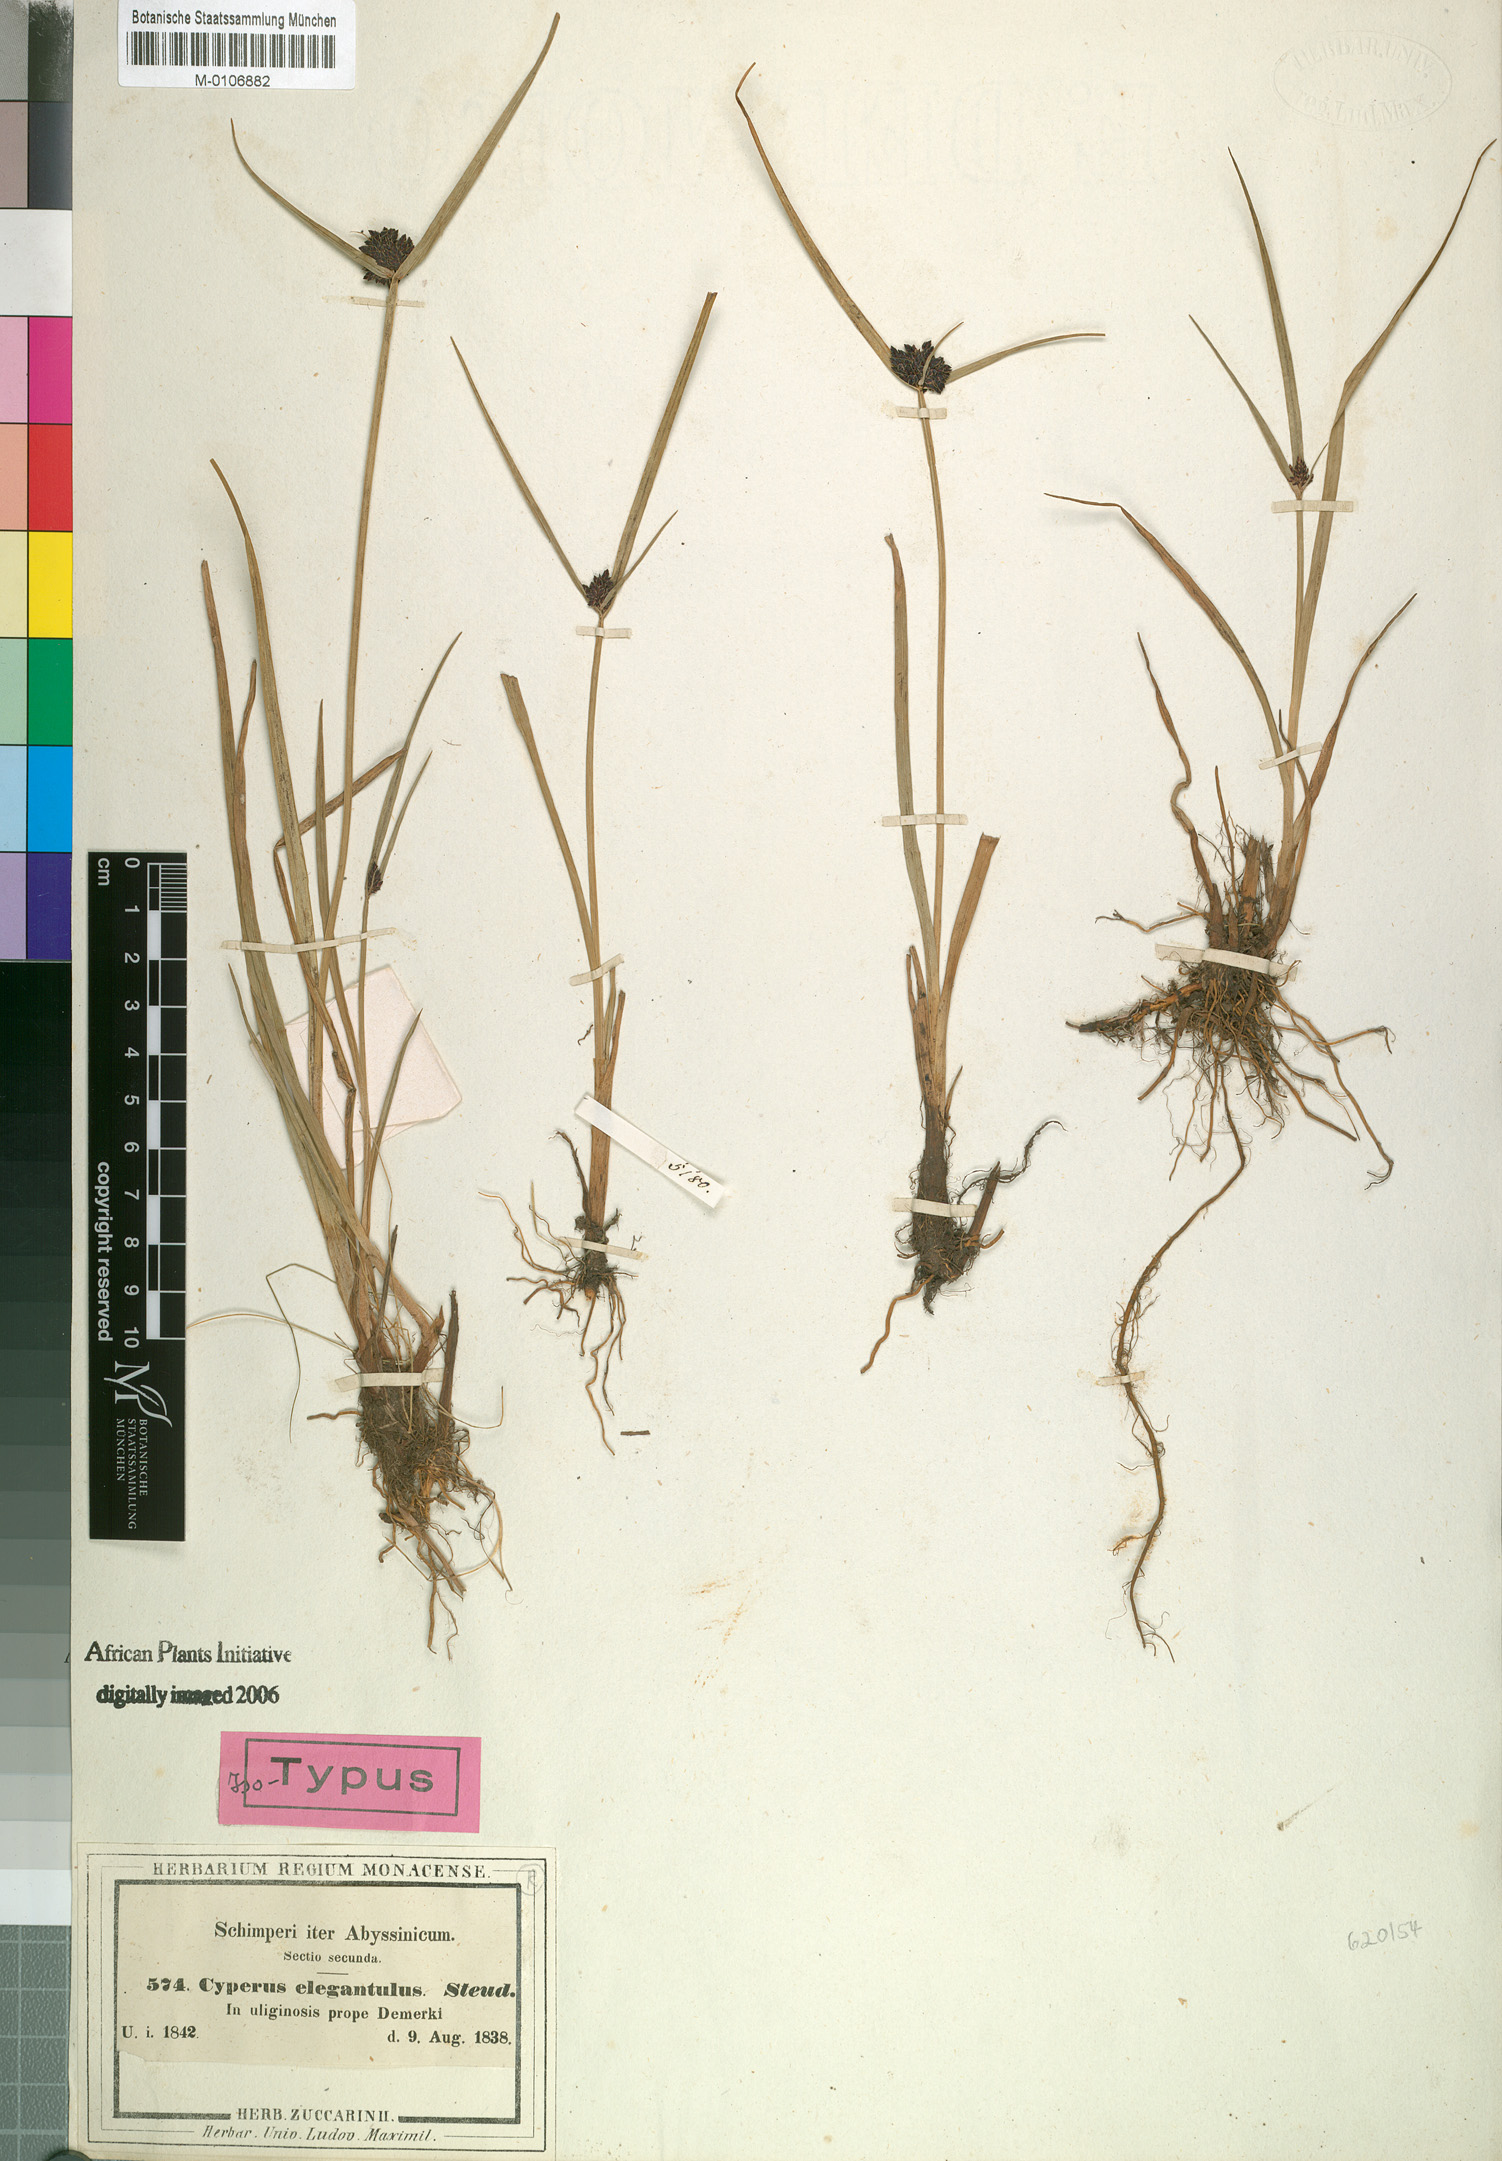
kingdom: Plantae
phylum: Tracheophyta
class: Liliopsida
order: Poales
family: Cyperaceae
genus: Cyperus
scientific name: Cyperus elegantulus
